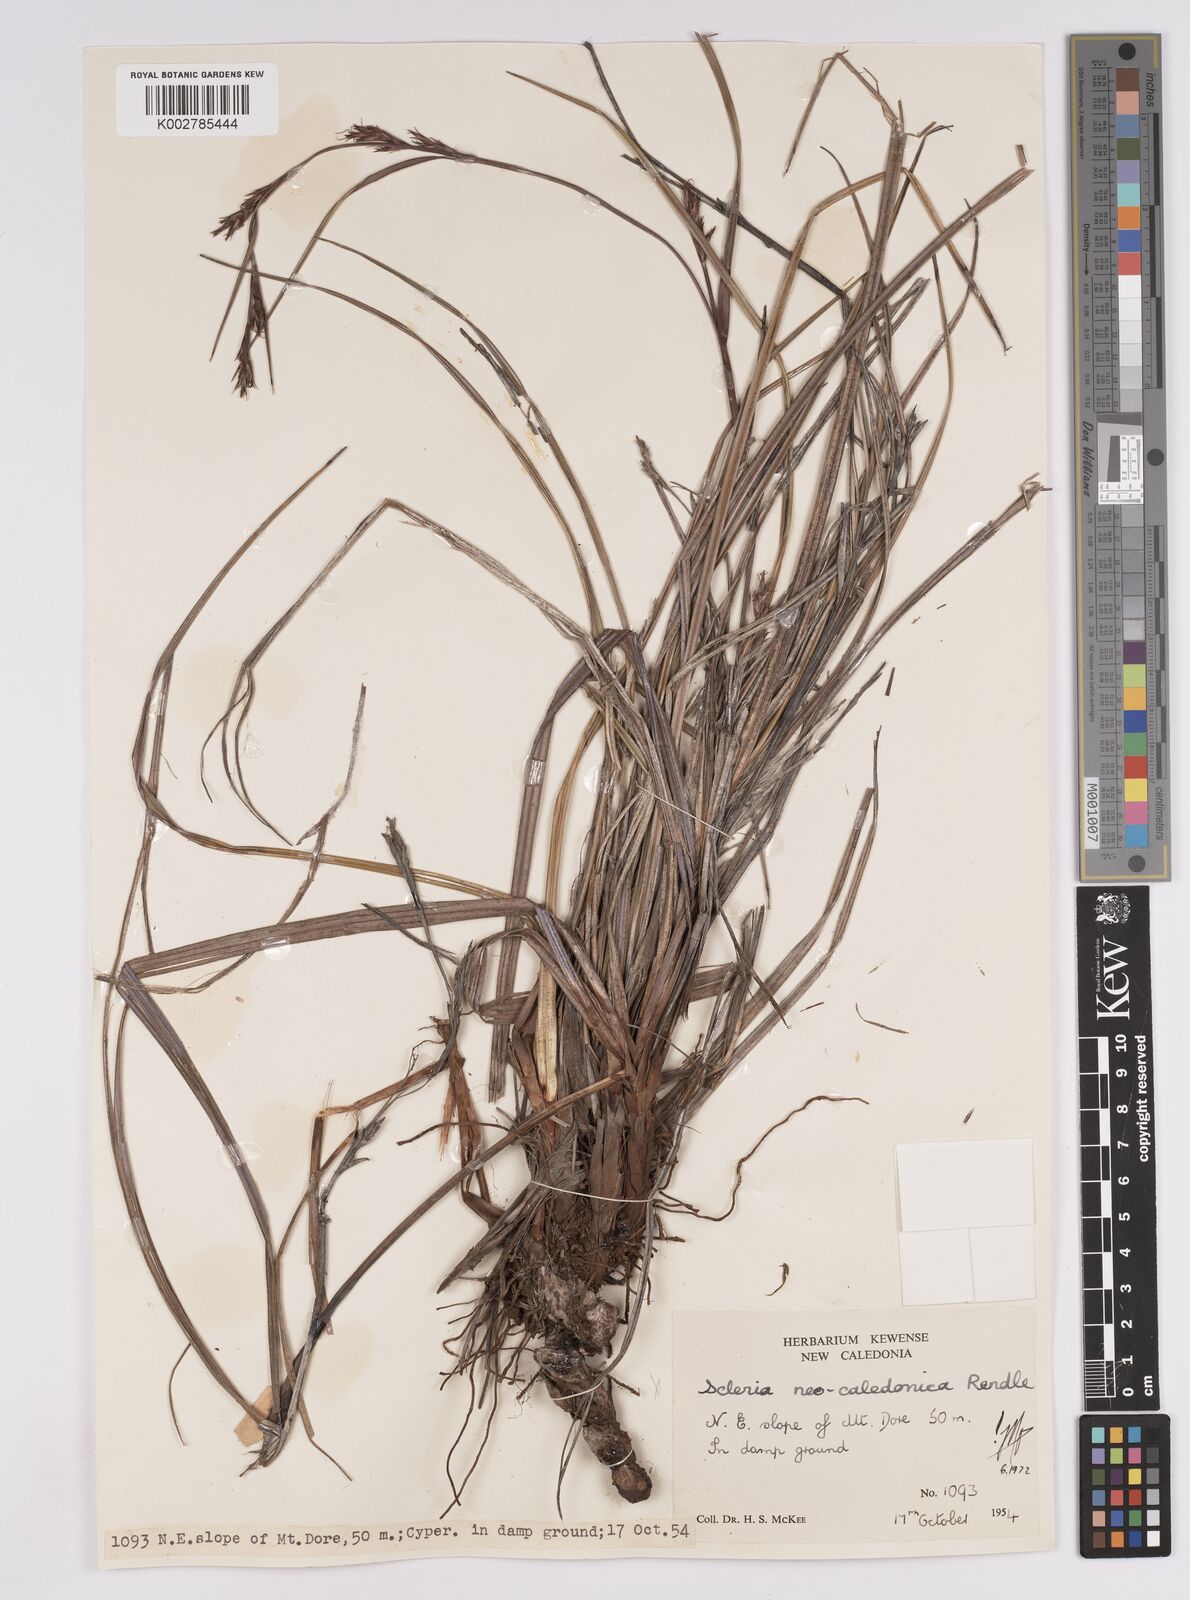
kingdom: Plantae
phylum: Tracheophyta
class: Liliopsida
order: Poales
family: Cyperaceae
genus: Scleria
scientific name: Scleria neocaledonica
